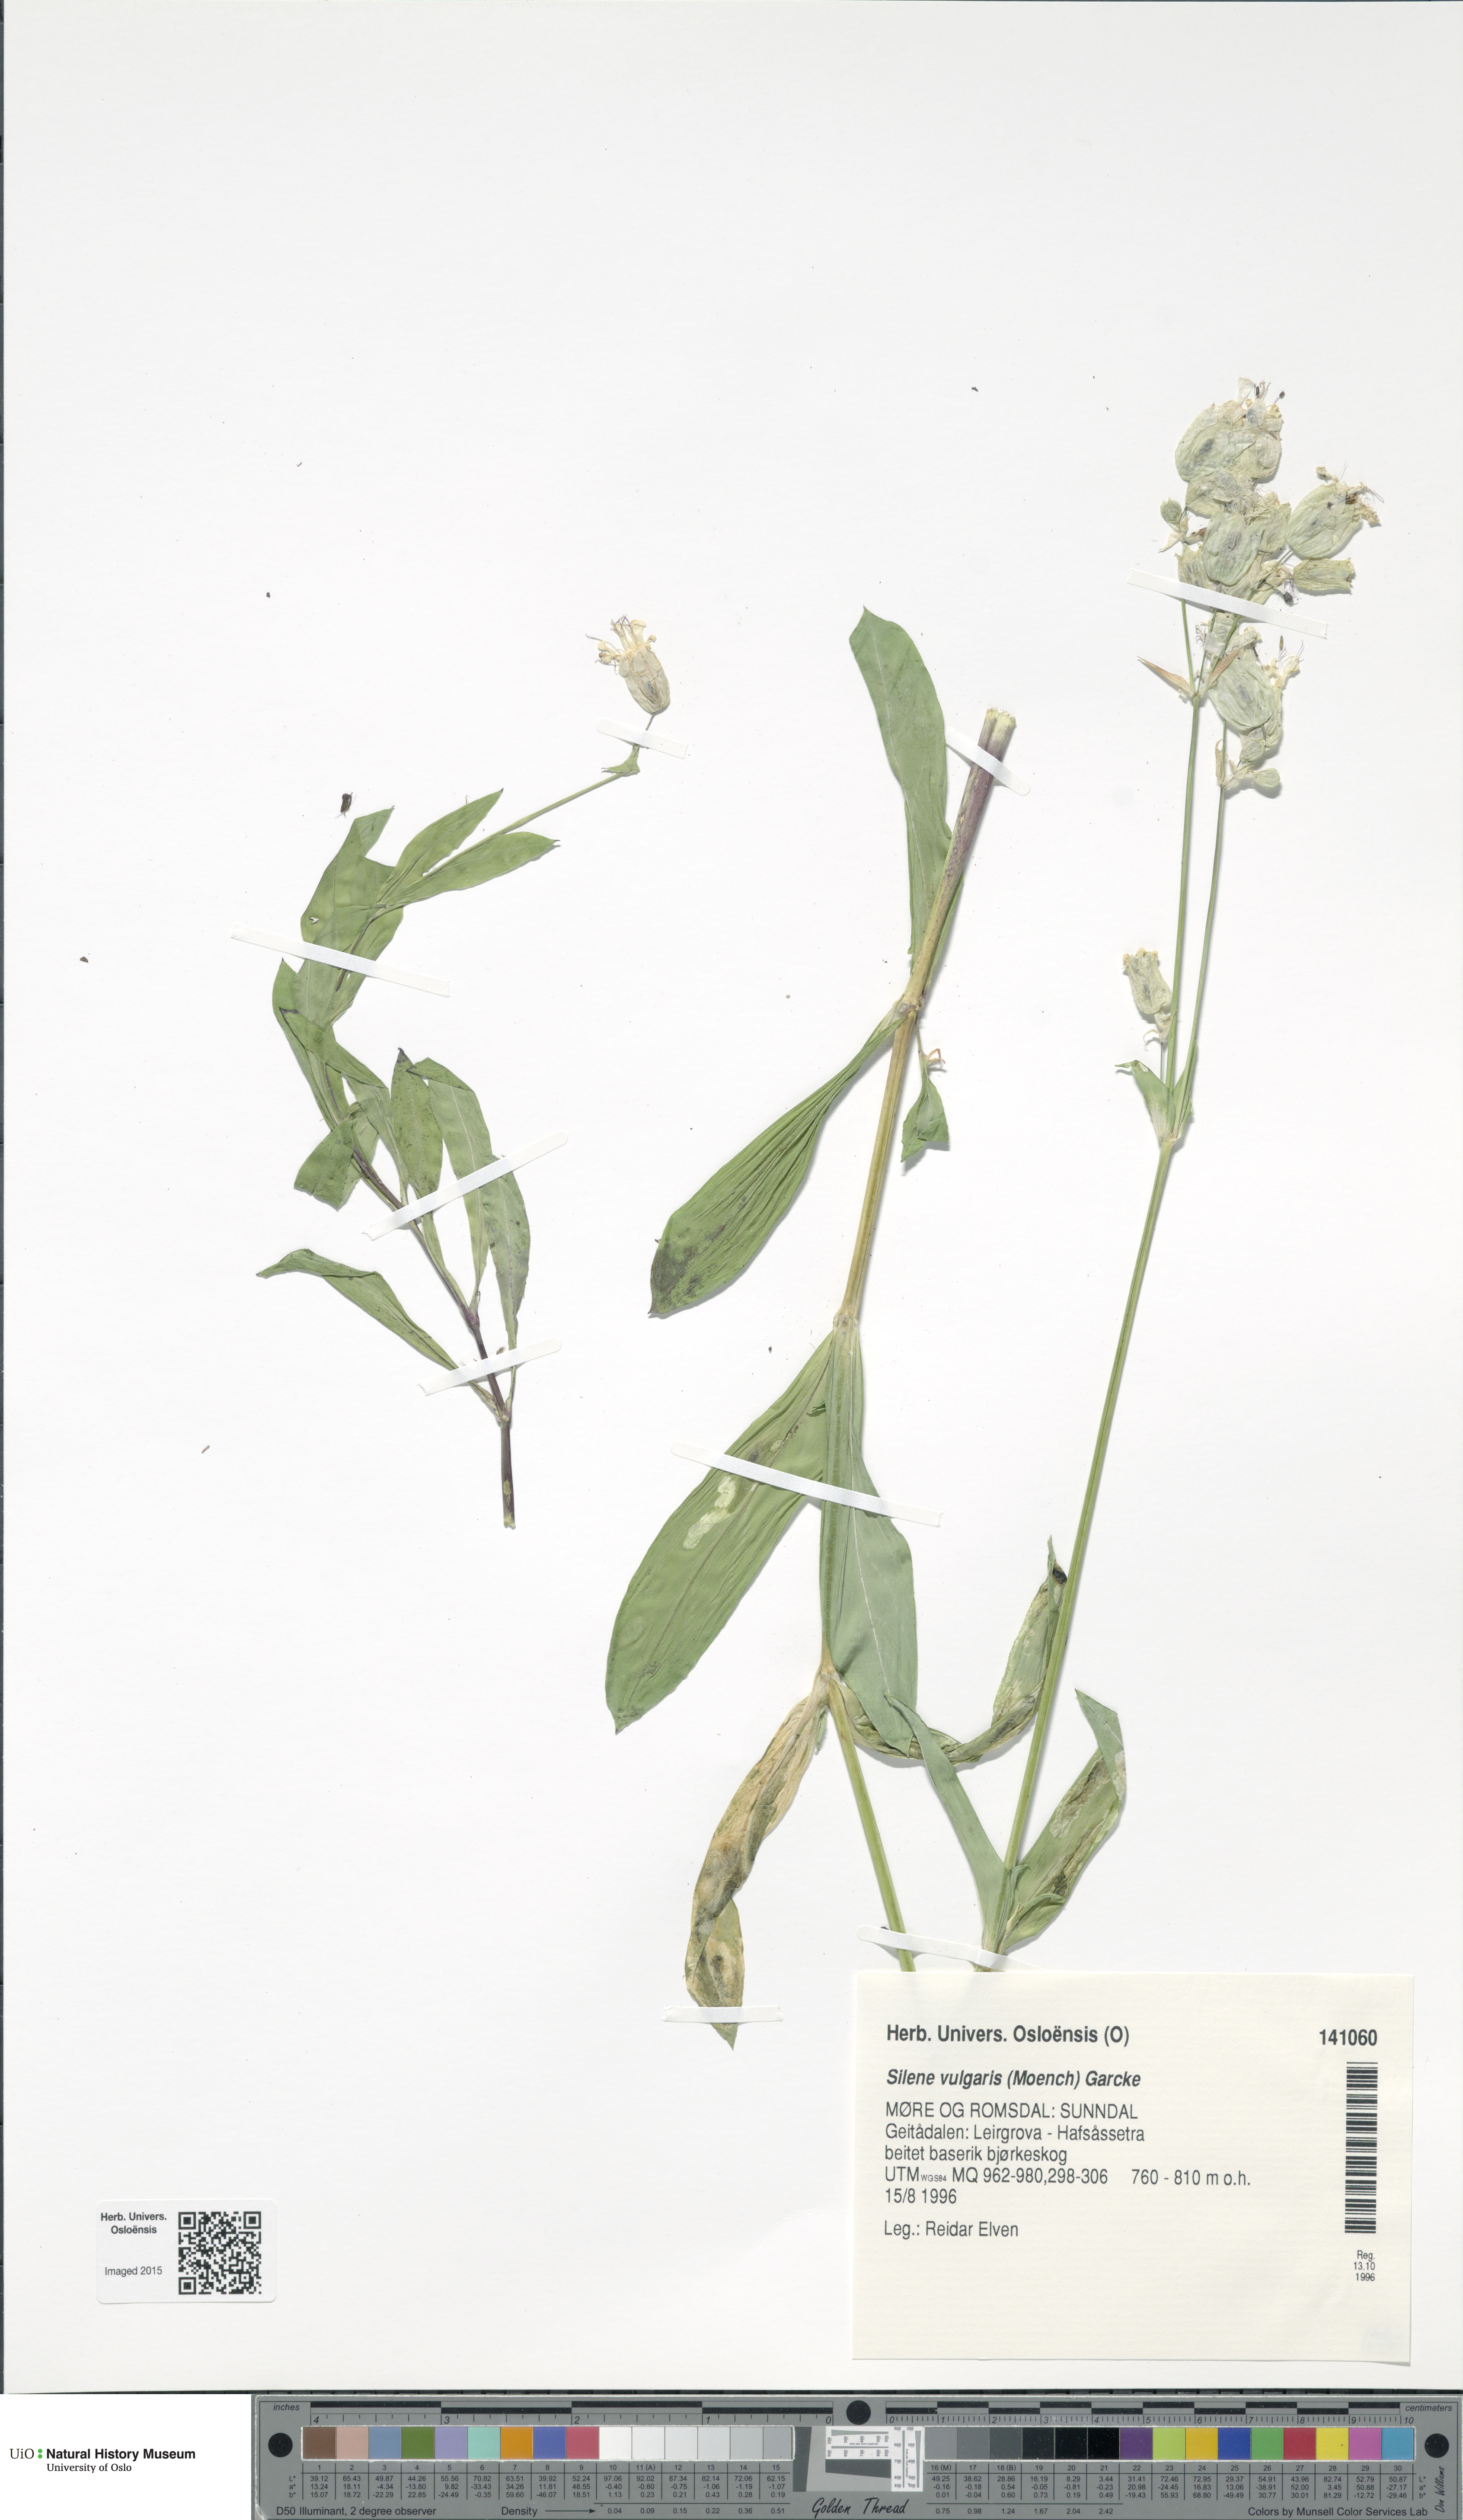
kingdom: Plantae
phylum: Tracheophyta
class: Magnoliopsida
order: Caryophyllales
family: Caryophyllaceae
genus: Silene
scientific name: Silene vulgaris
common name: Bladder campion
